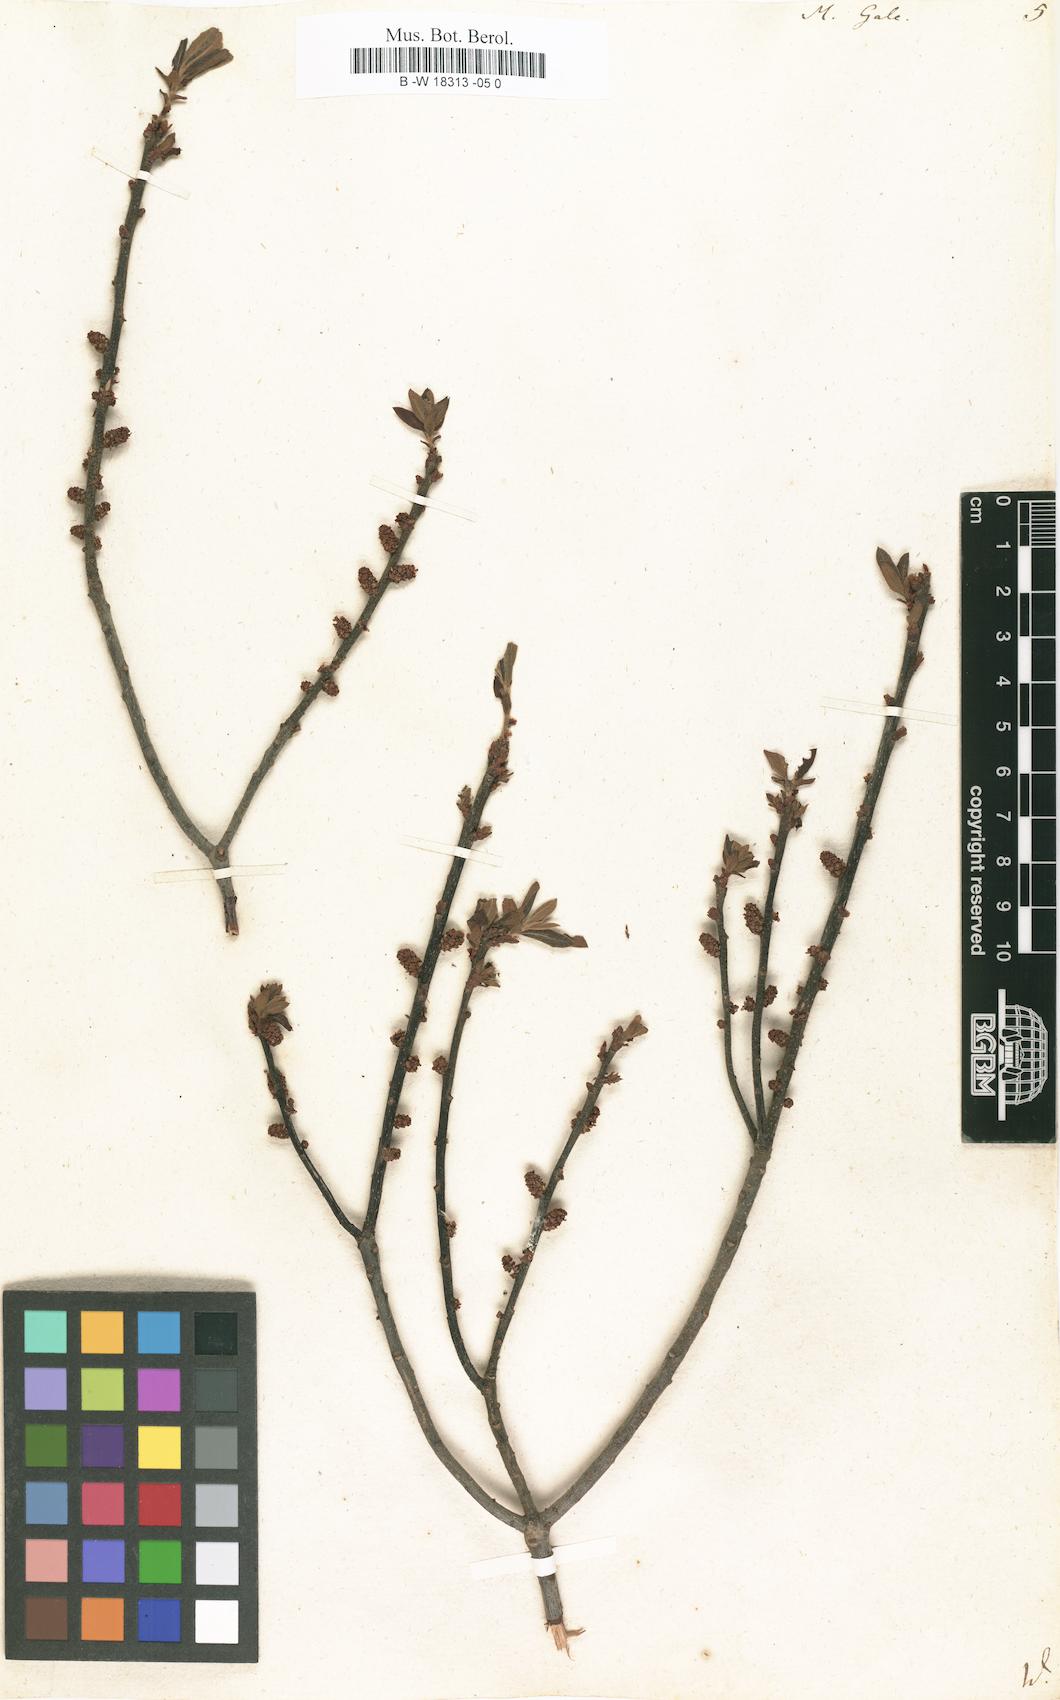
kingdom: Plantae
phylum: Tracheophyta
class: Magnoliopsida
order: Fagales
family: Myricaceae
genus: Myrica
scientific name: Myrica gale
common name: Sweet gale
